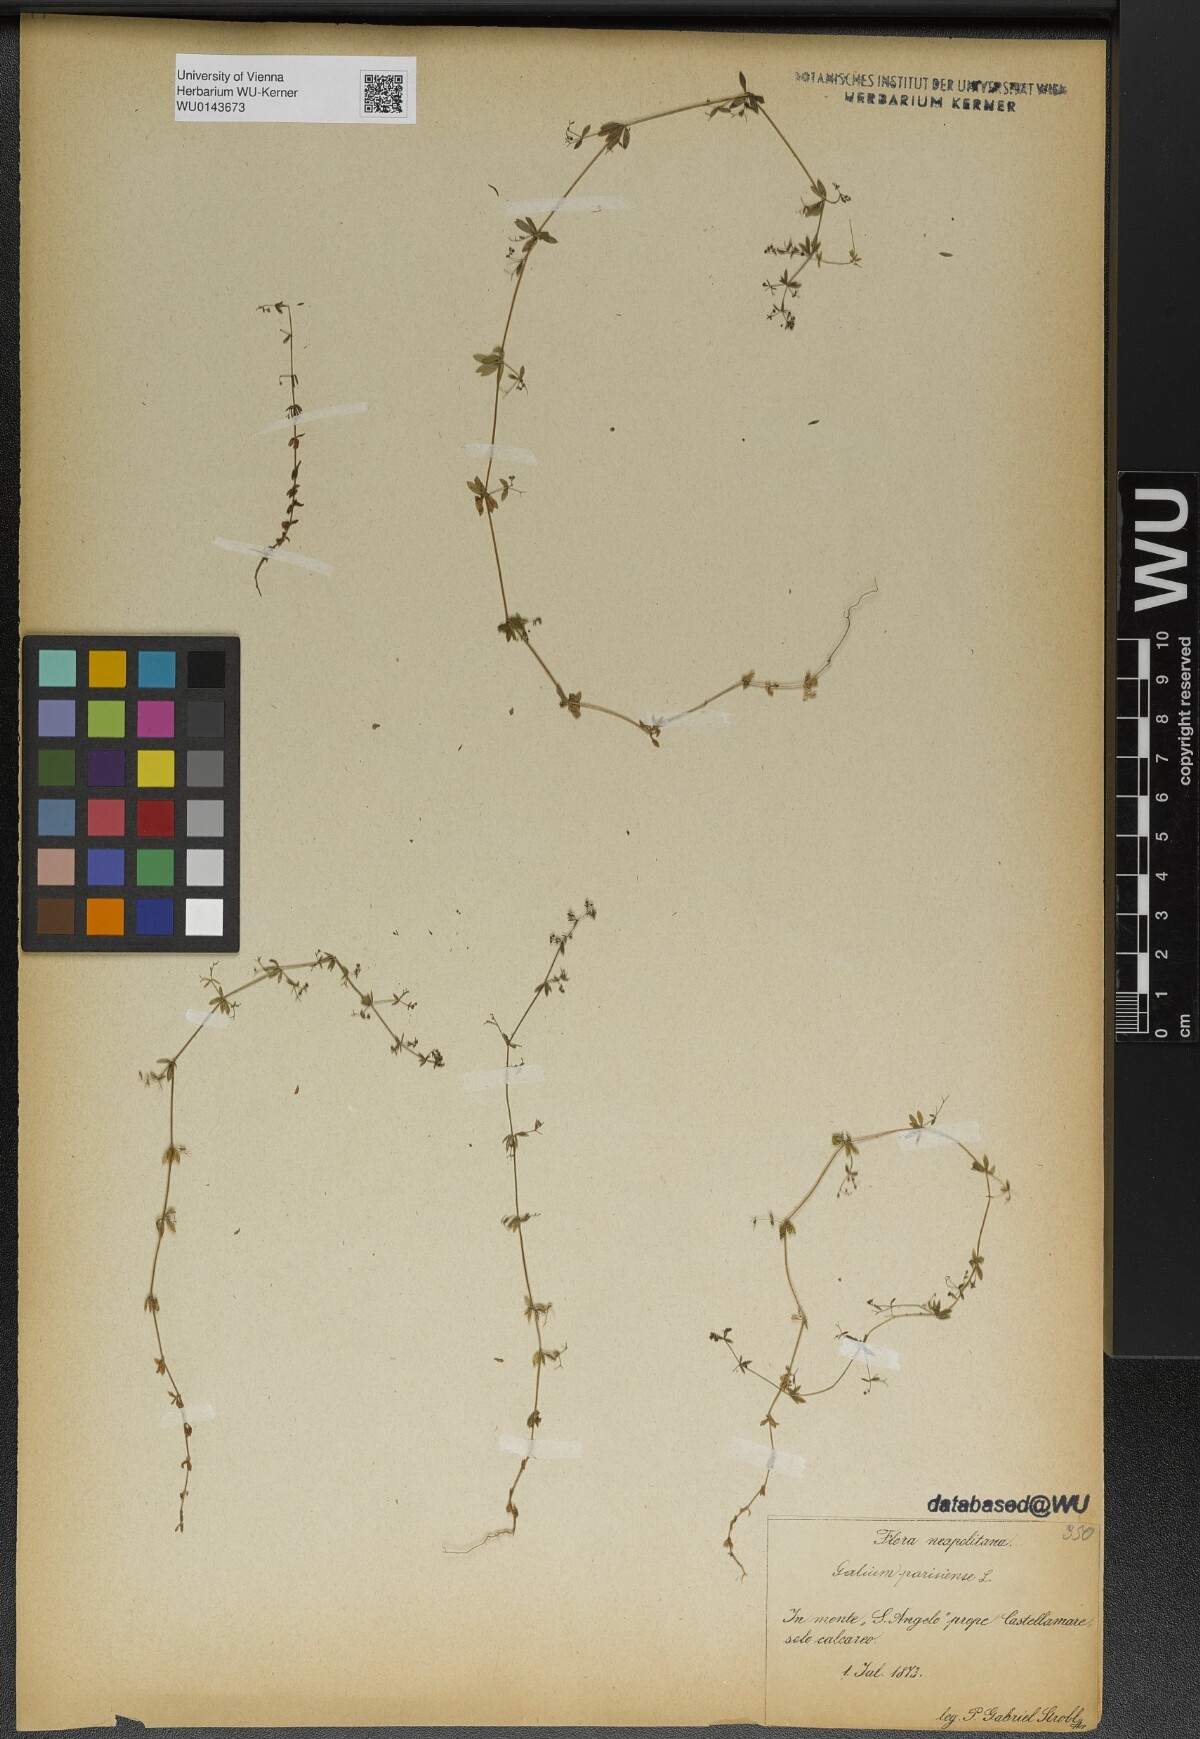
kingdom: Plantae
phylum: Tracheophyta
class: Magnoliopsida
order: Gentianales
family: Rubiaceae
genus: Galium
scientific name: Galium parisiense
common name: Wall bedstraw
